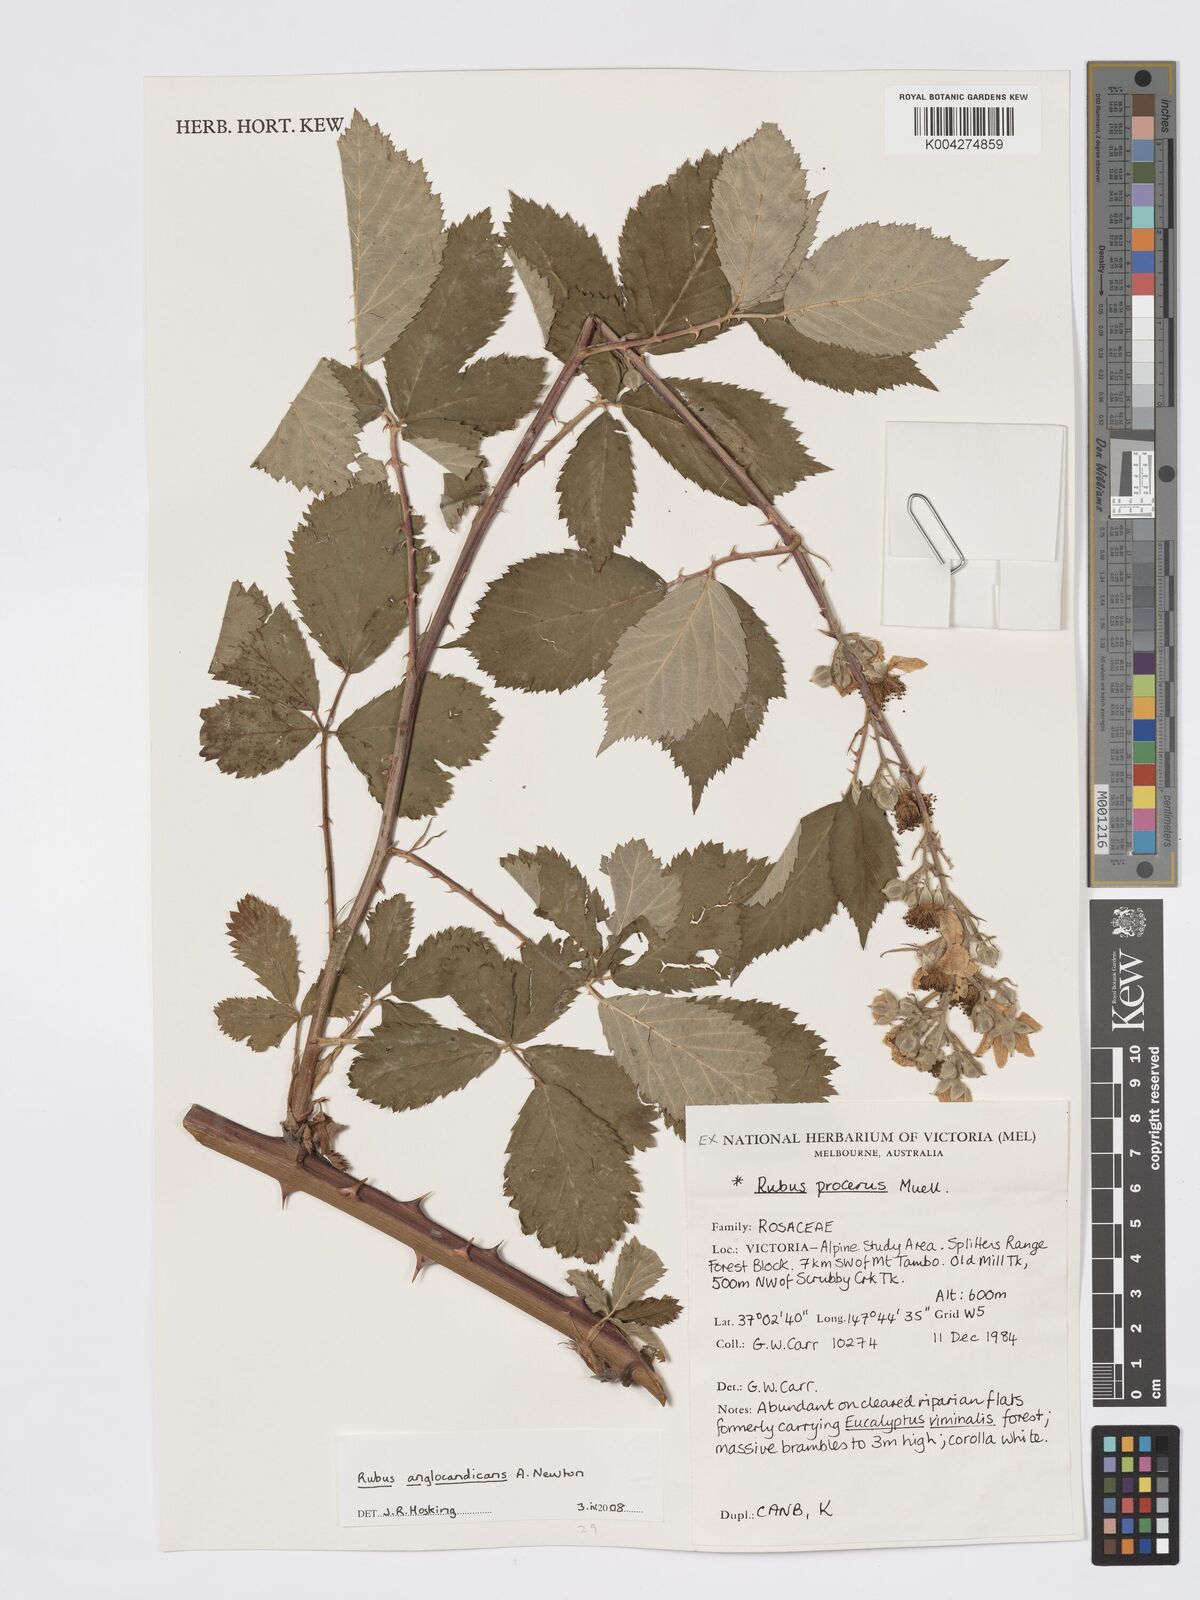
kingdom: Plantae
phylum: Tracheophyta
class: Magnoliopsida
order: Rosales
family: Rosaceae
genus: Rubus
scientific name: Rubus anglocandicans
